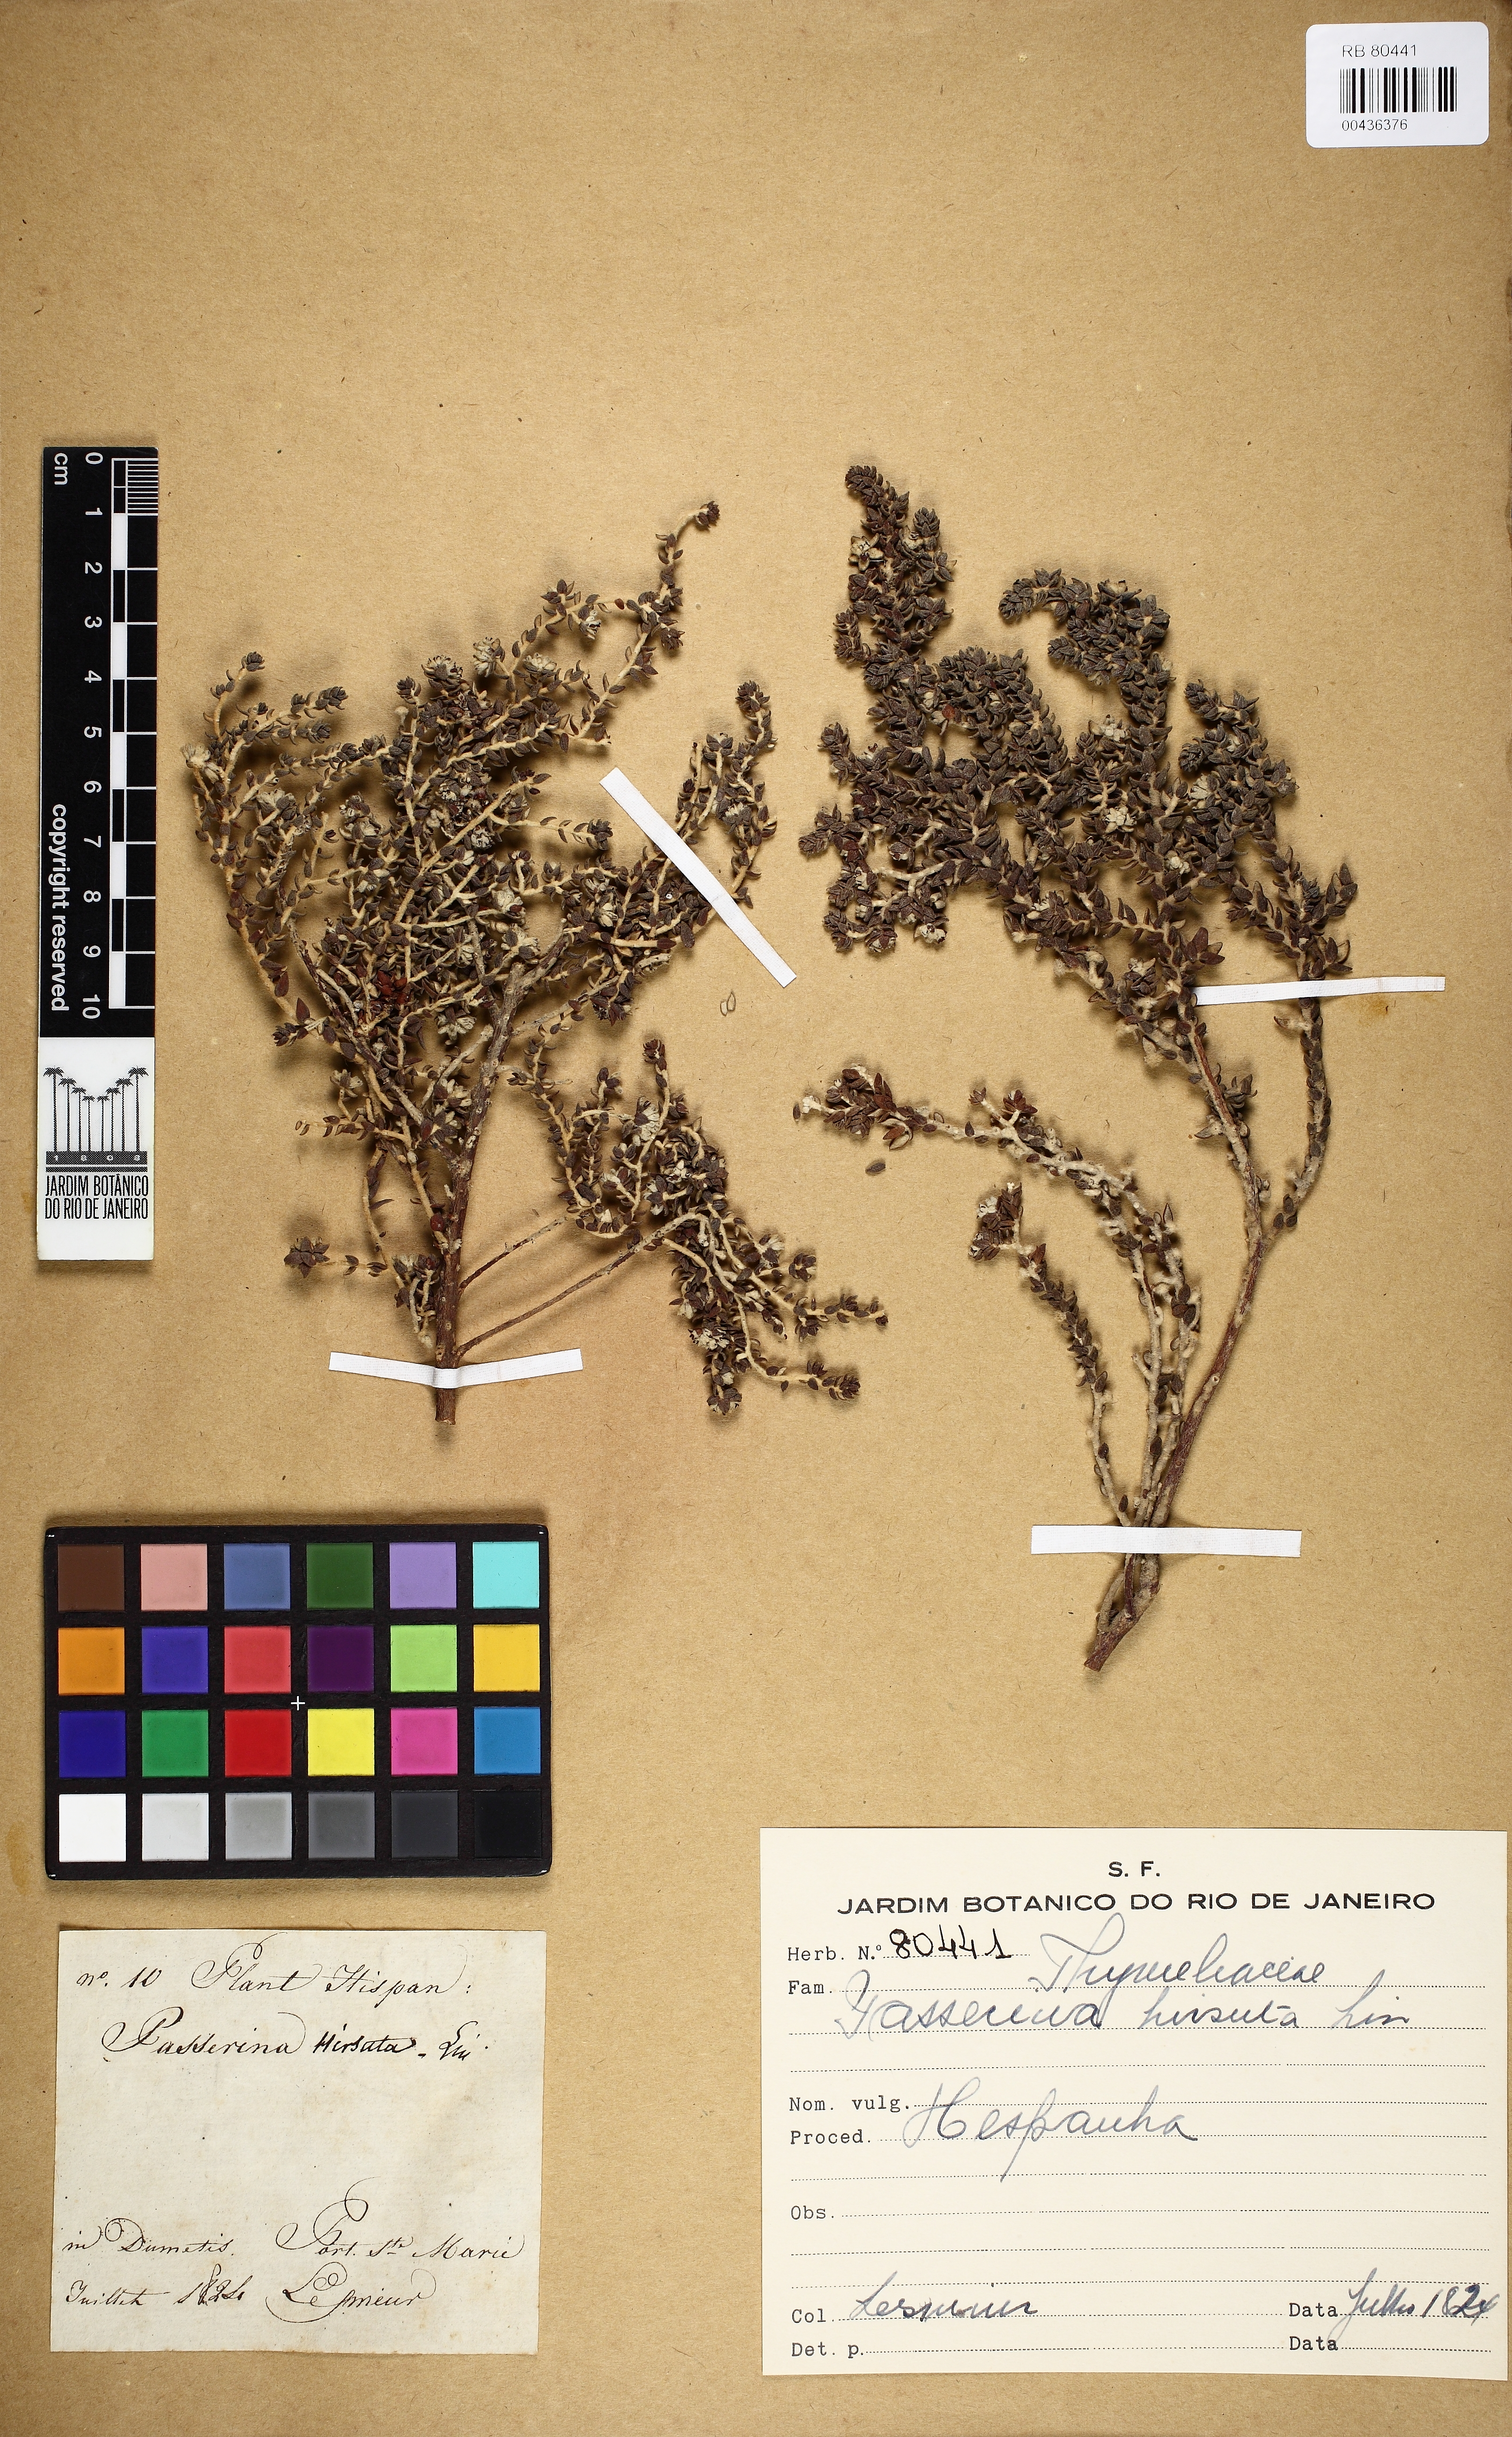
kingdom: Plantae
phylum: Tracheophyta
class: Magnoliopsida
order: Malvales
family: Thymelaeaceae
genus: Thymelaea
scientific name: Thymelaea tinctoria
